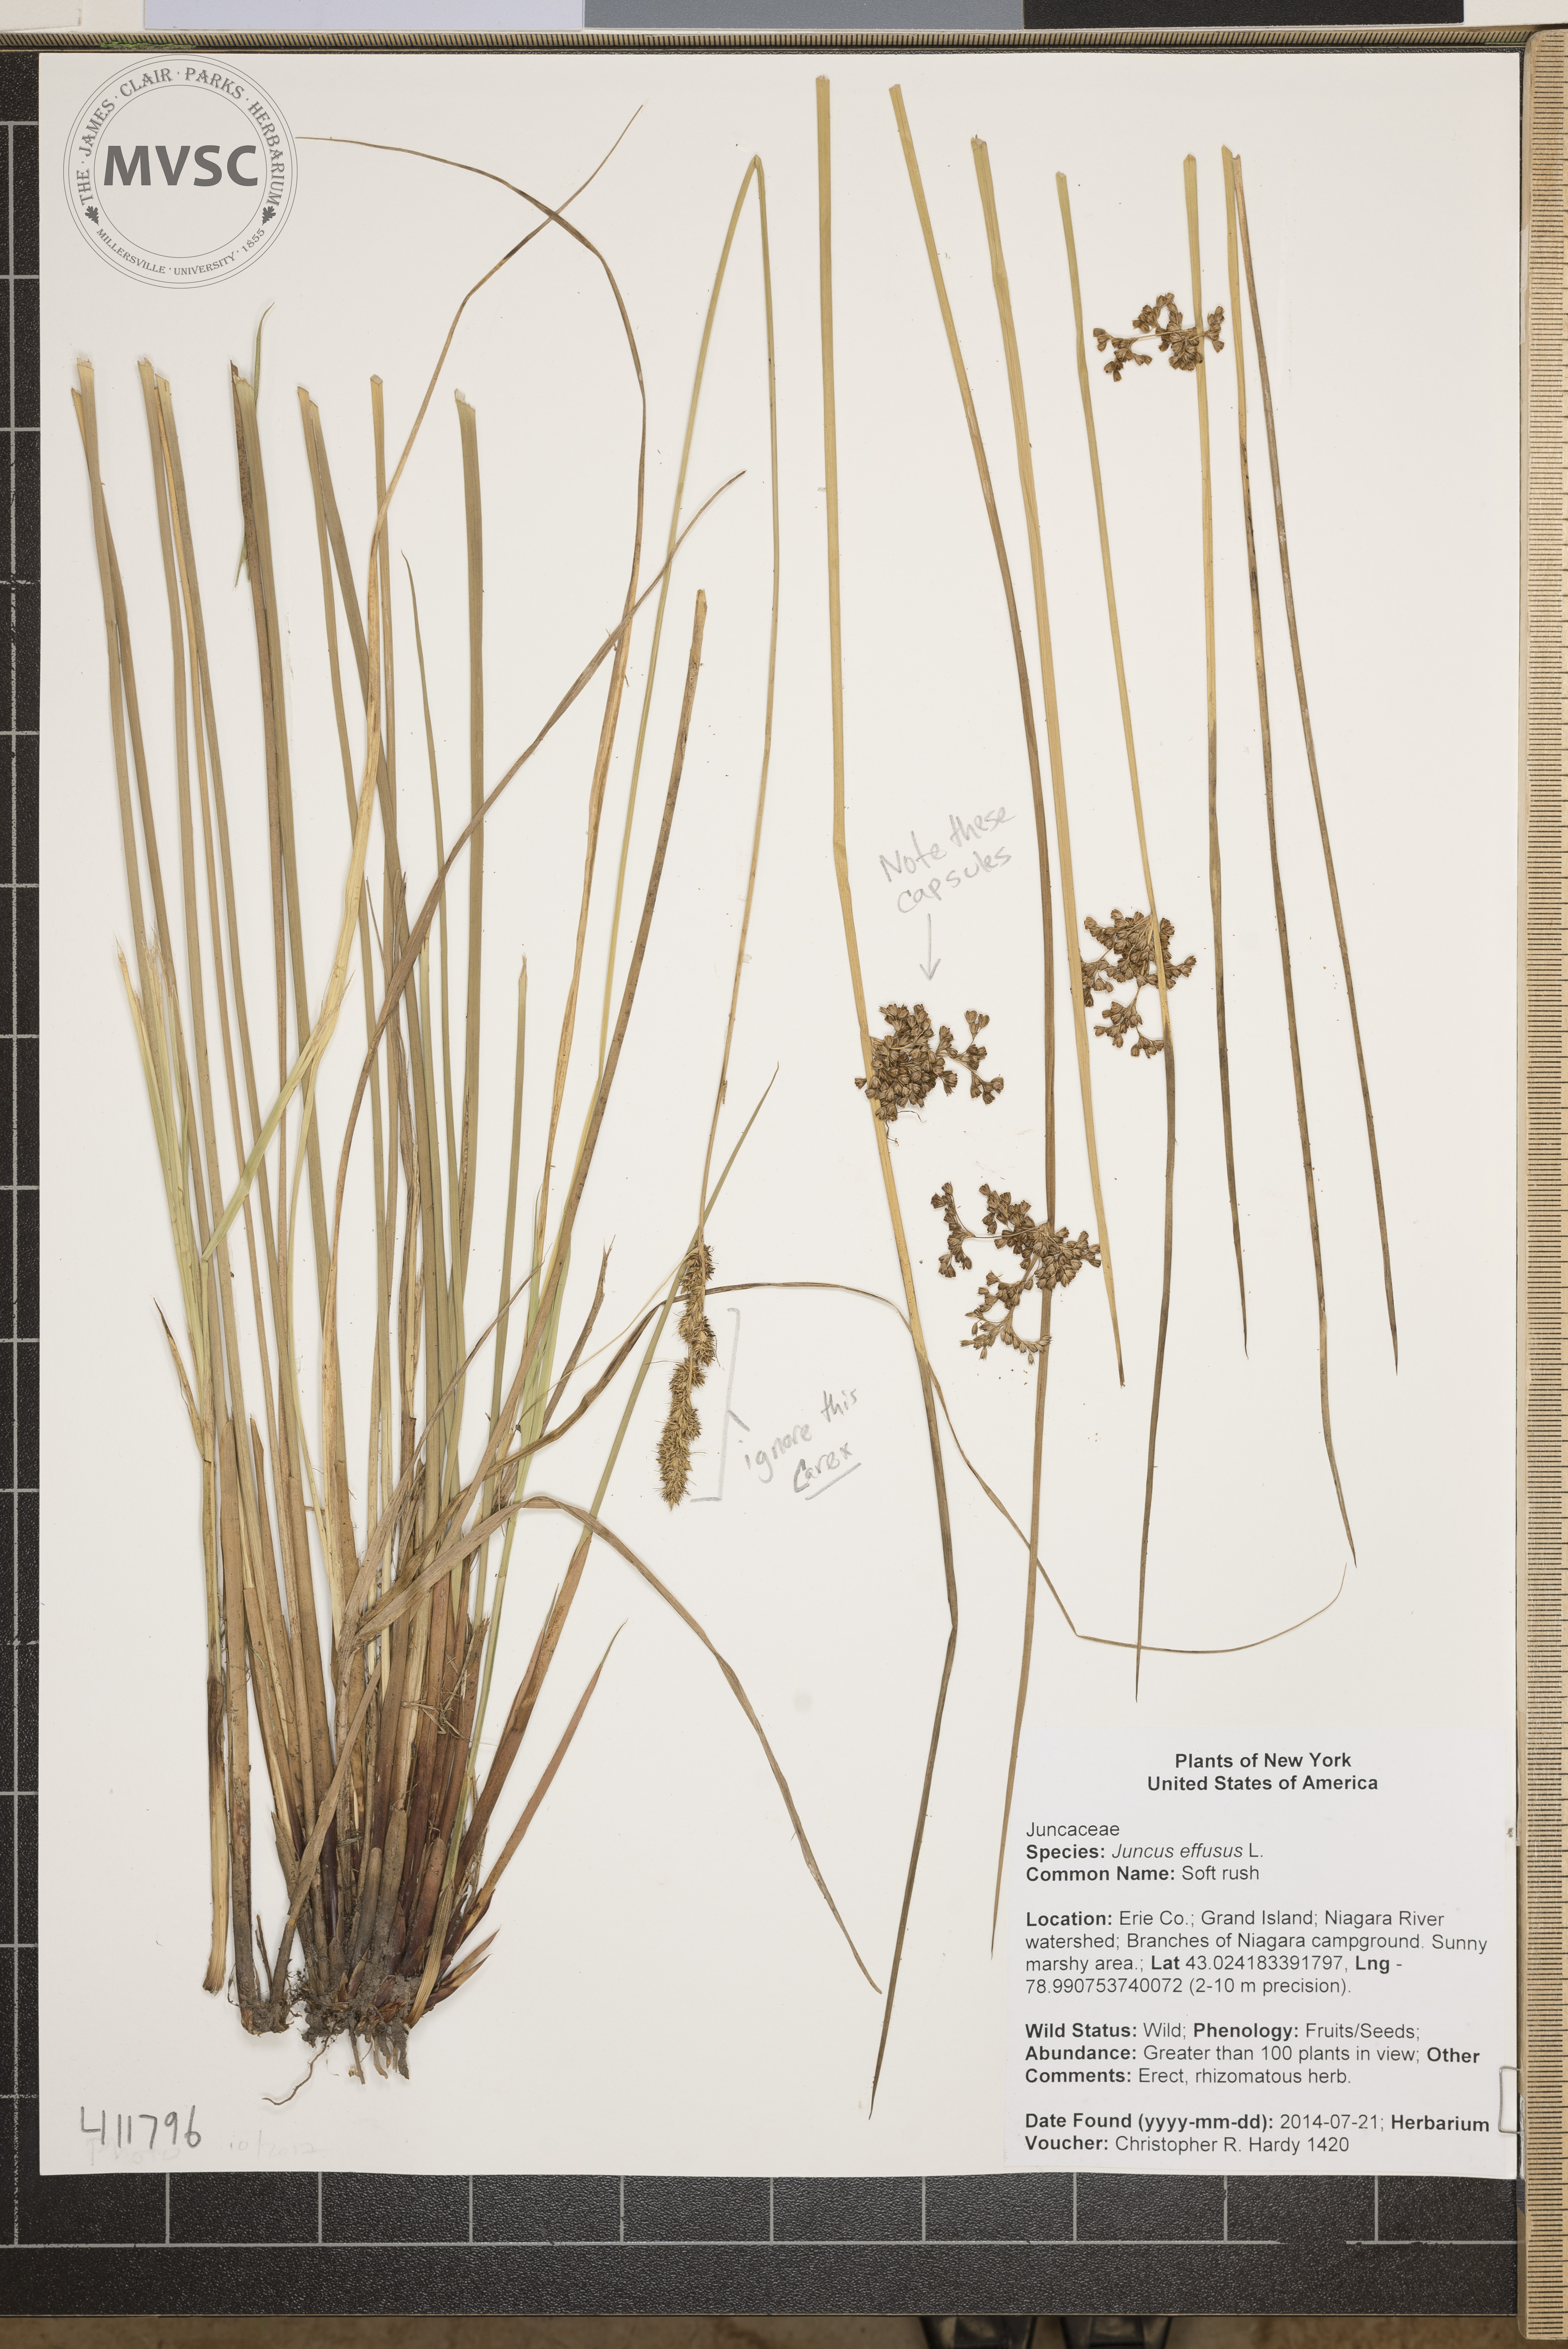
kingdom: Plantae
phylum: Tracheophyta
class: Liliopsida
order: Poales
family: Juncaceae
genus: Juncus
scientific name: Juncus effusus
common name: Soft rush
